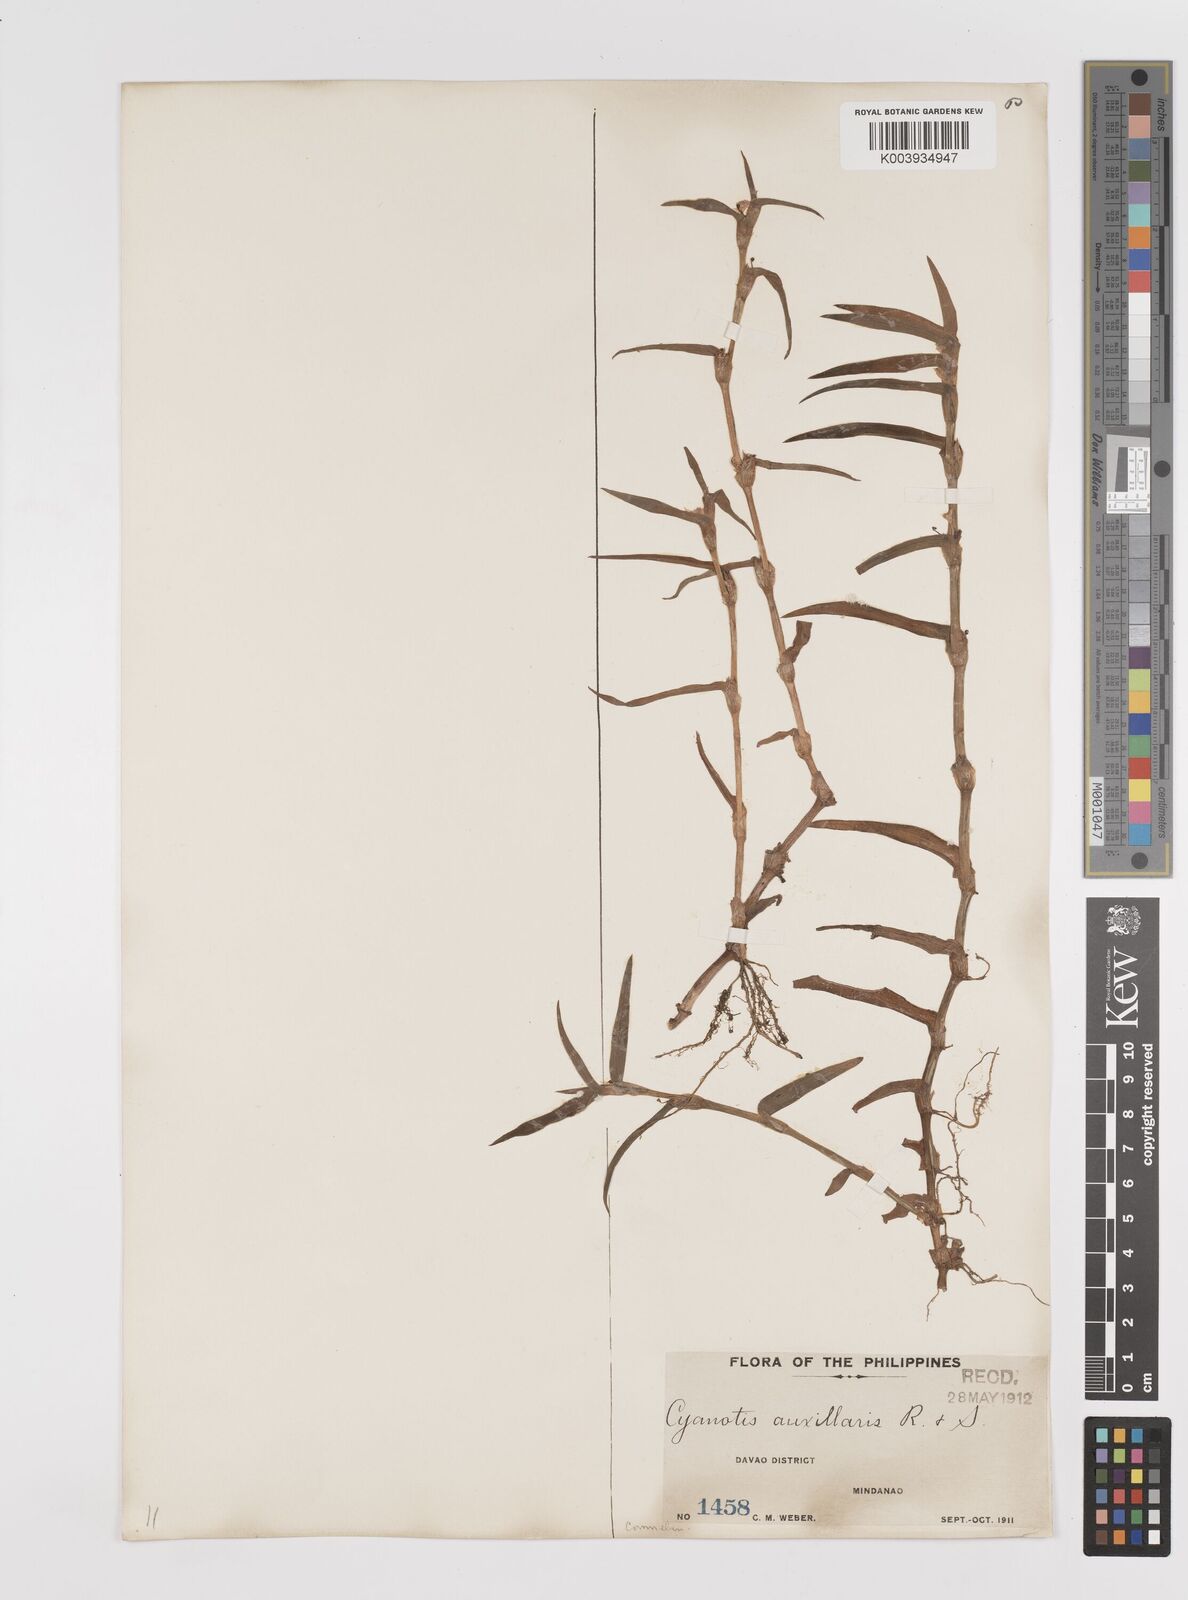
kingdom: Plantae
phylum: Tracheophyta
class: Liliopsida
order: Commelinales
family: Commelinaceae
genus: Cyanotis
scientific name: Cyanotis axillaris
